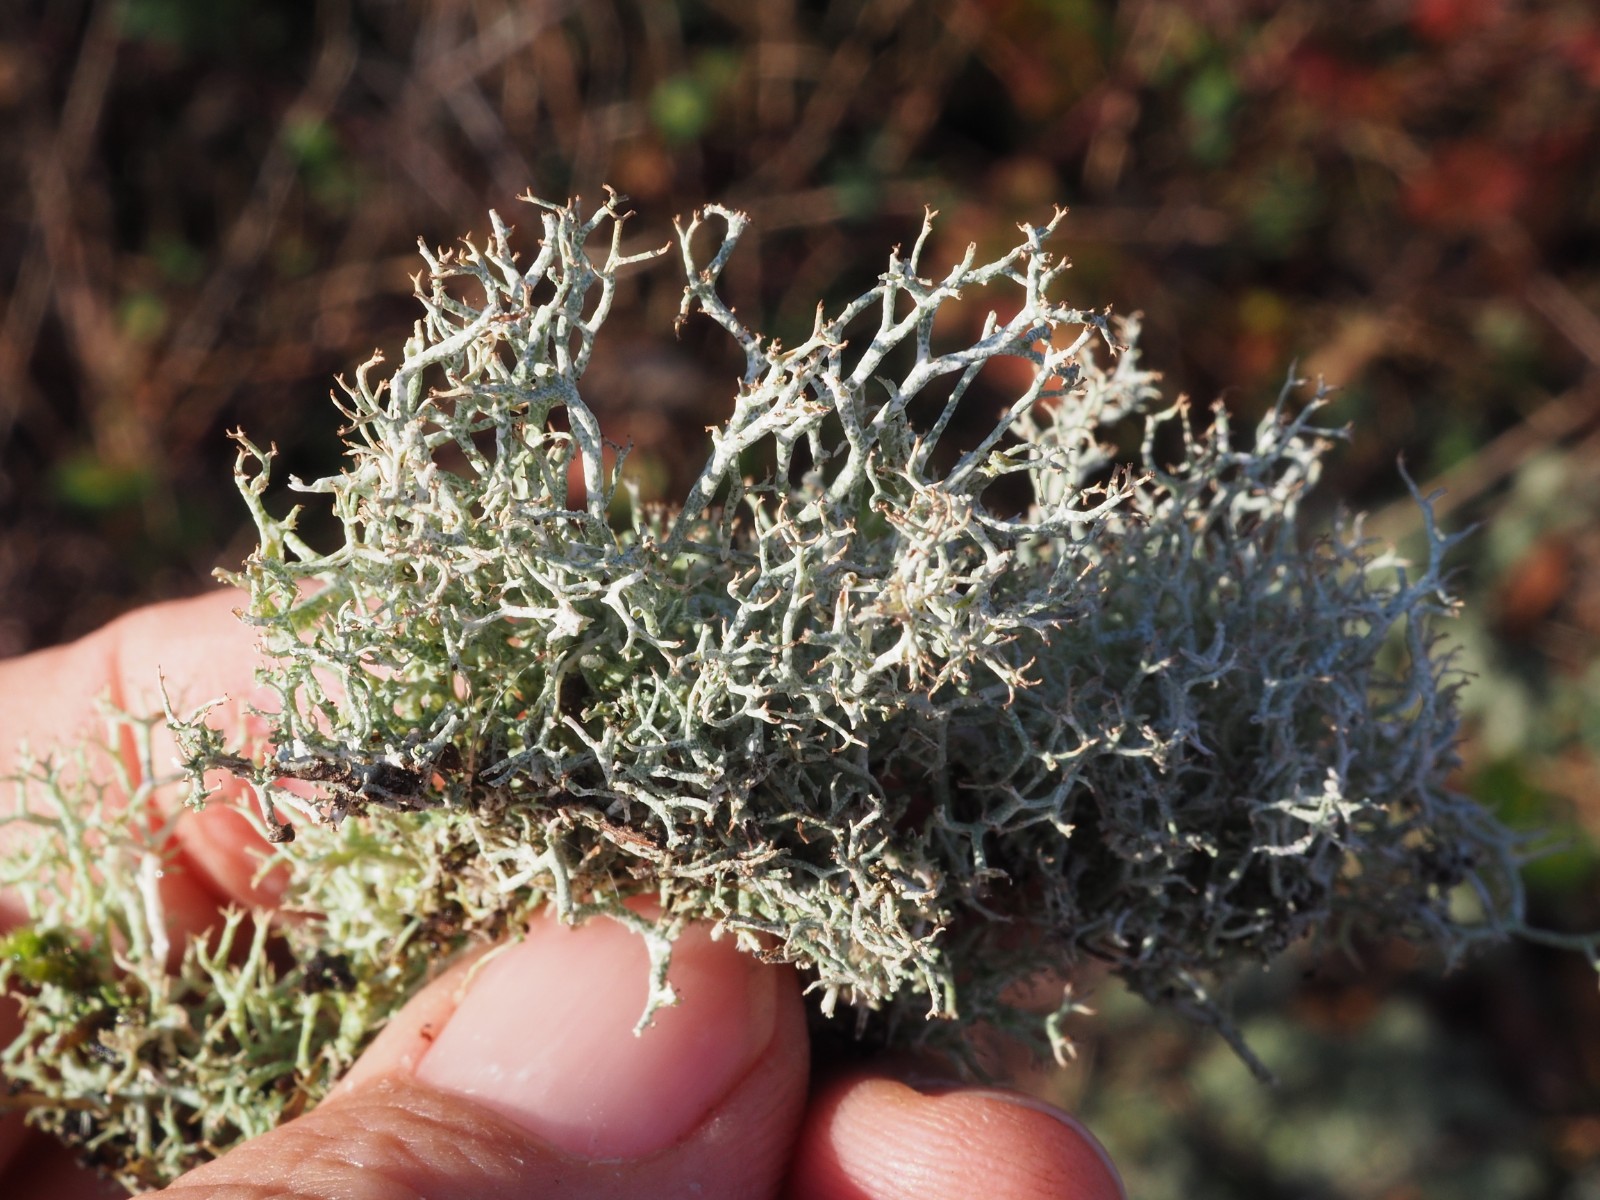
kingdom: Fungi
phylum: Ascomycota
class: Lecanoromycetes
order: Lecanorales
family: Cladoniaceae
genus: Cladonia
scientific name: Cladonia rangiformis
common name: spættet bægerlav
